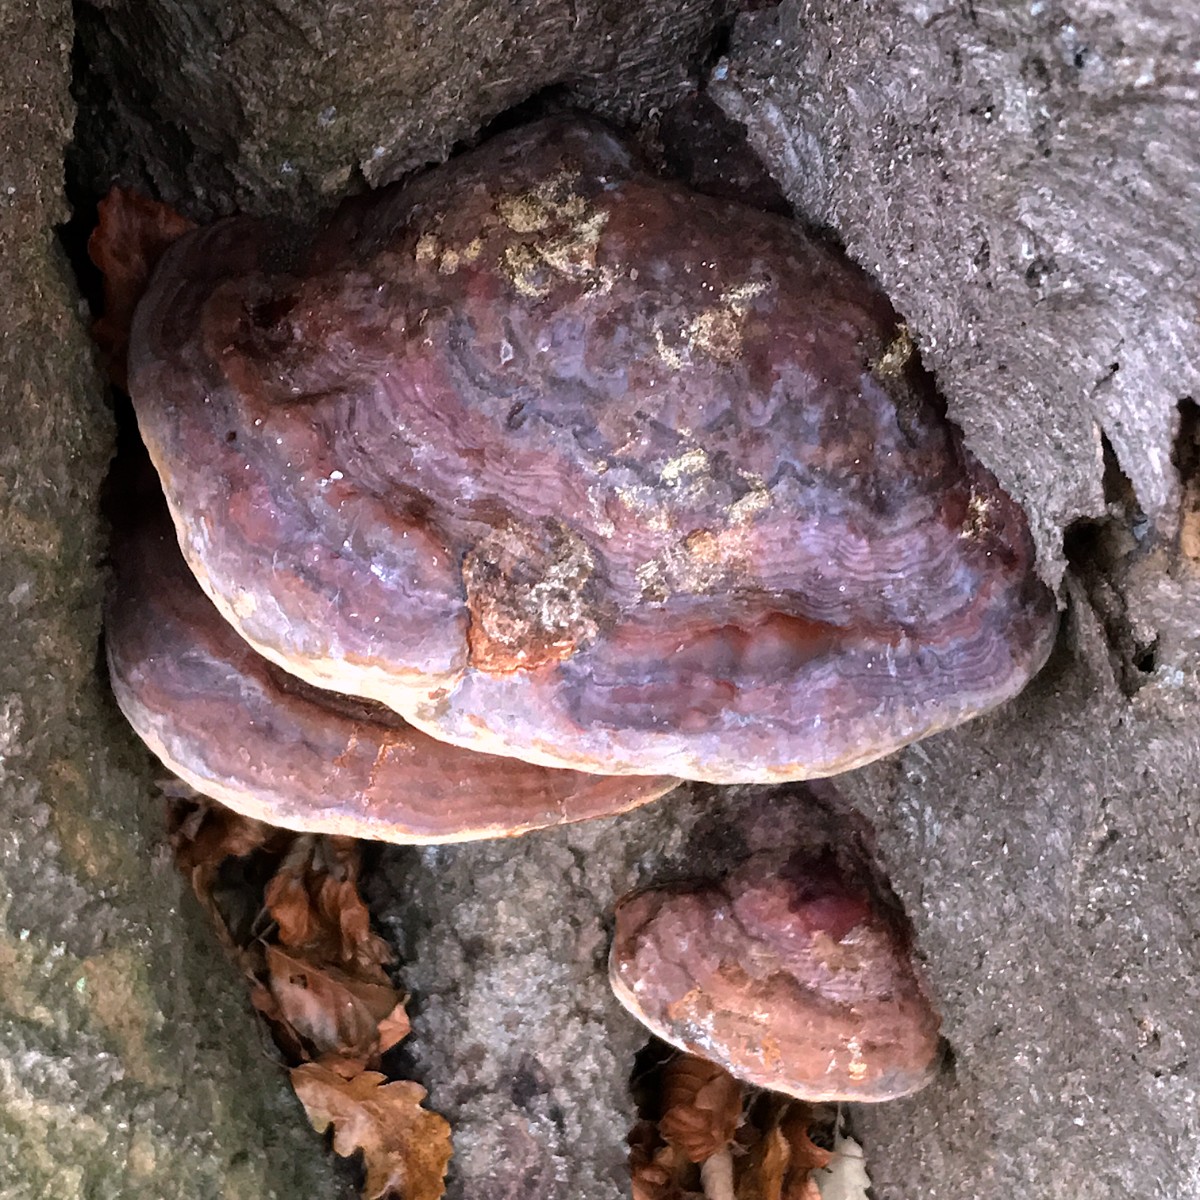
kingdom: Fungi
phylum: Basidiomycota
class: Agaricomycetes
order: Polyporales
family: Fomitopsidaceae
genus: Fomitopsis
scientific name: Fomitopsis pinicola
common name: randbæltet hovporesvamp
